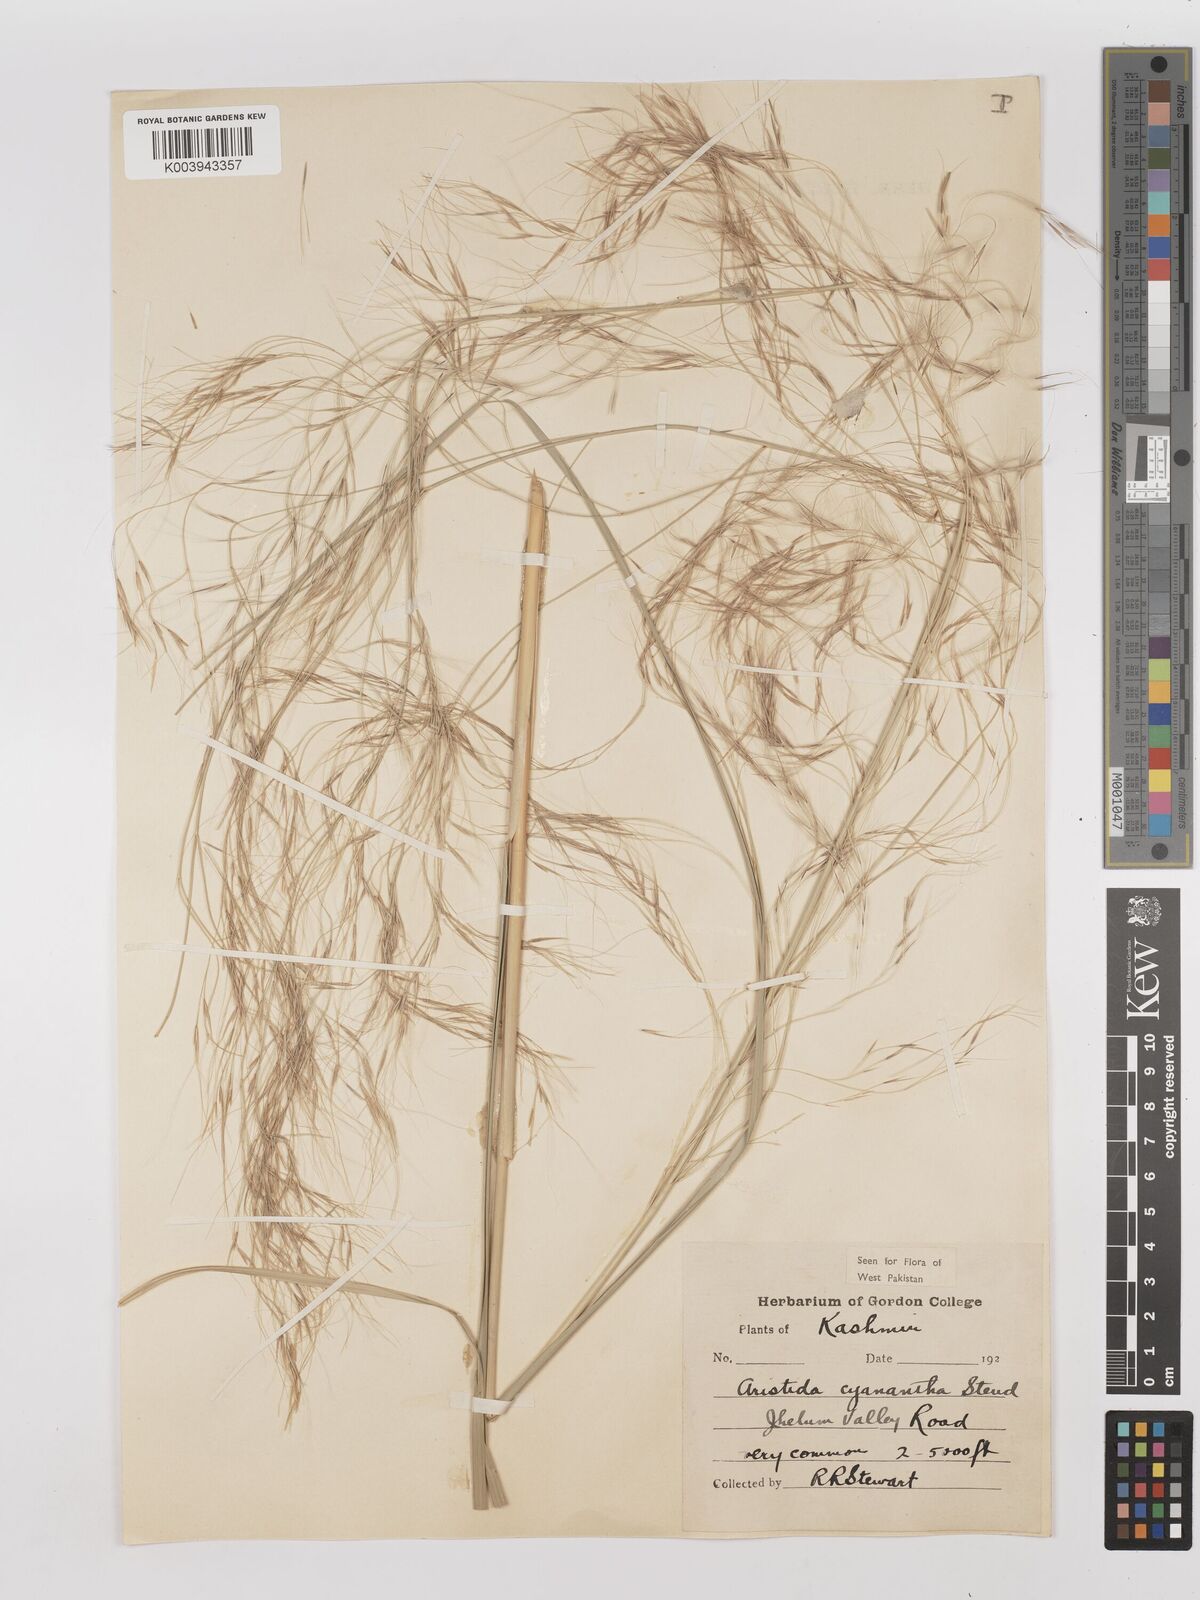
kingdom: Plantae
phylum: Tracheophyta
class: Liliopsida
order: Poales
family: Poaceae
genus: Aristida
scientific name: Aristida cyanantha
